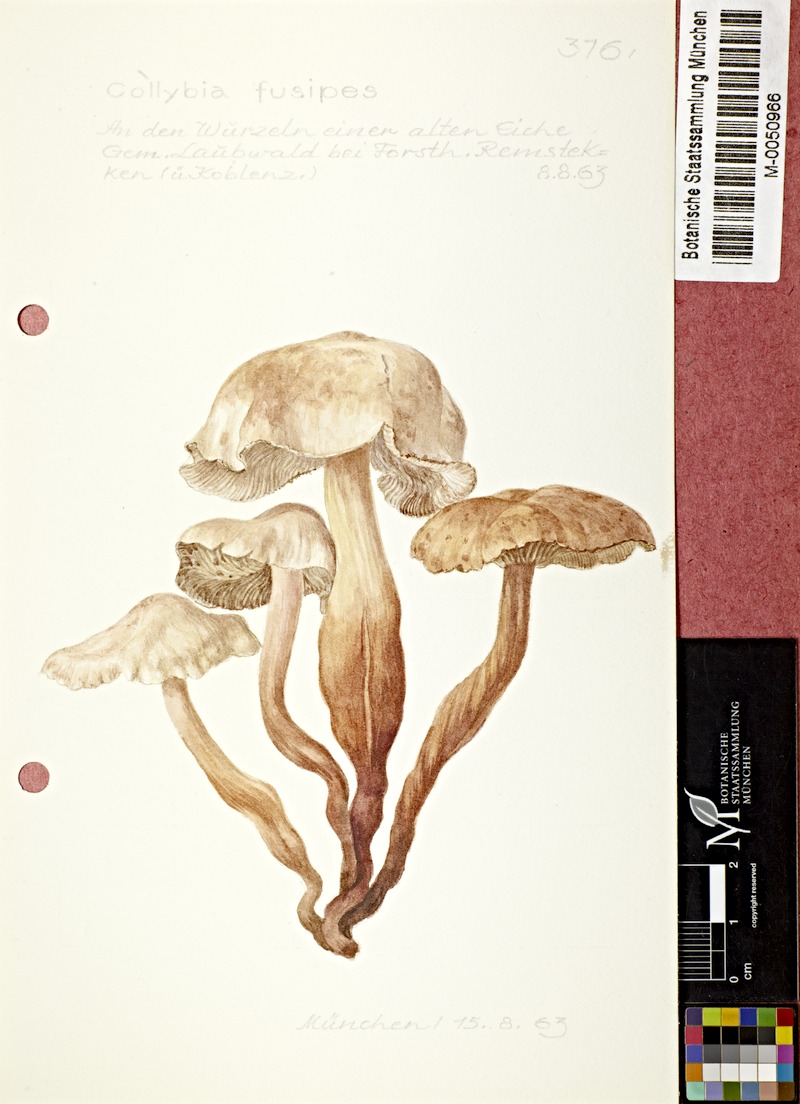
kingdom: Fungi
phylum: Basidiomycota
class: Agaricomycetes
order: Agaricales
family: Omphalotaceae
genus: Gymnopus
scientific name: Gymnopus fusipes
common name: Spindle shank
